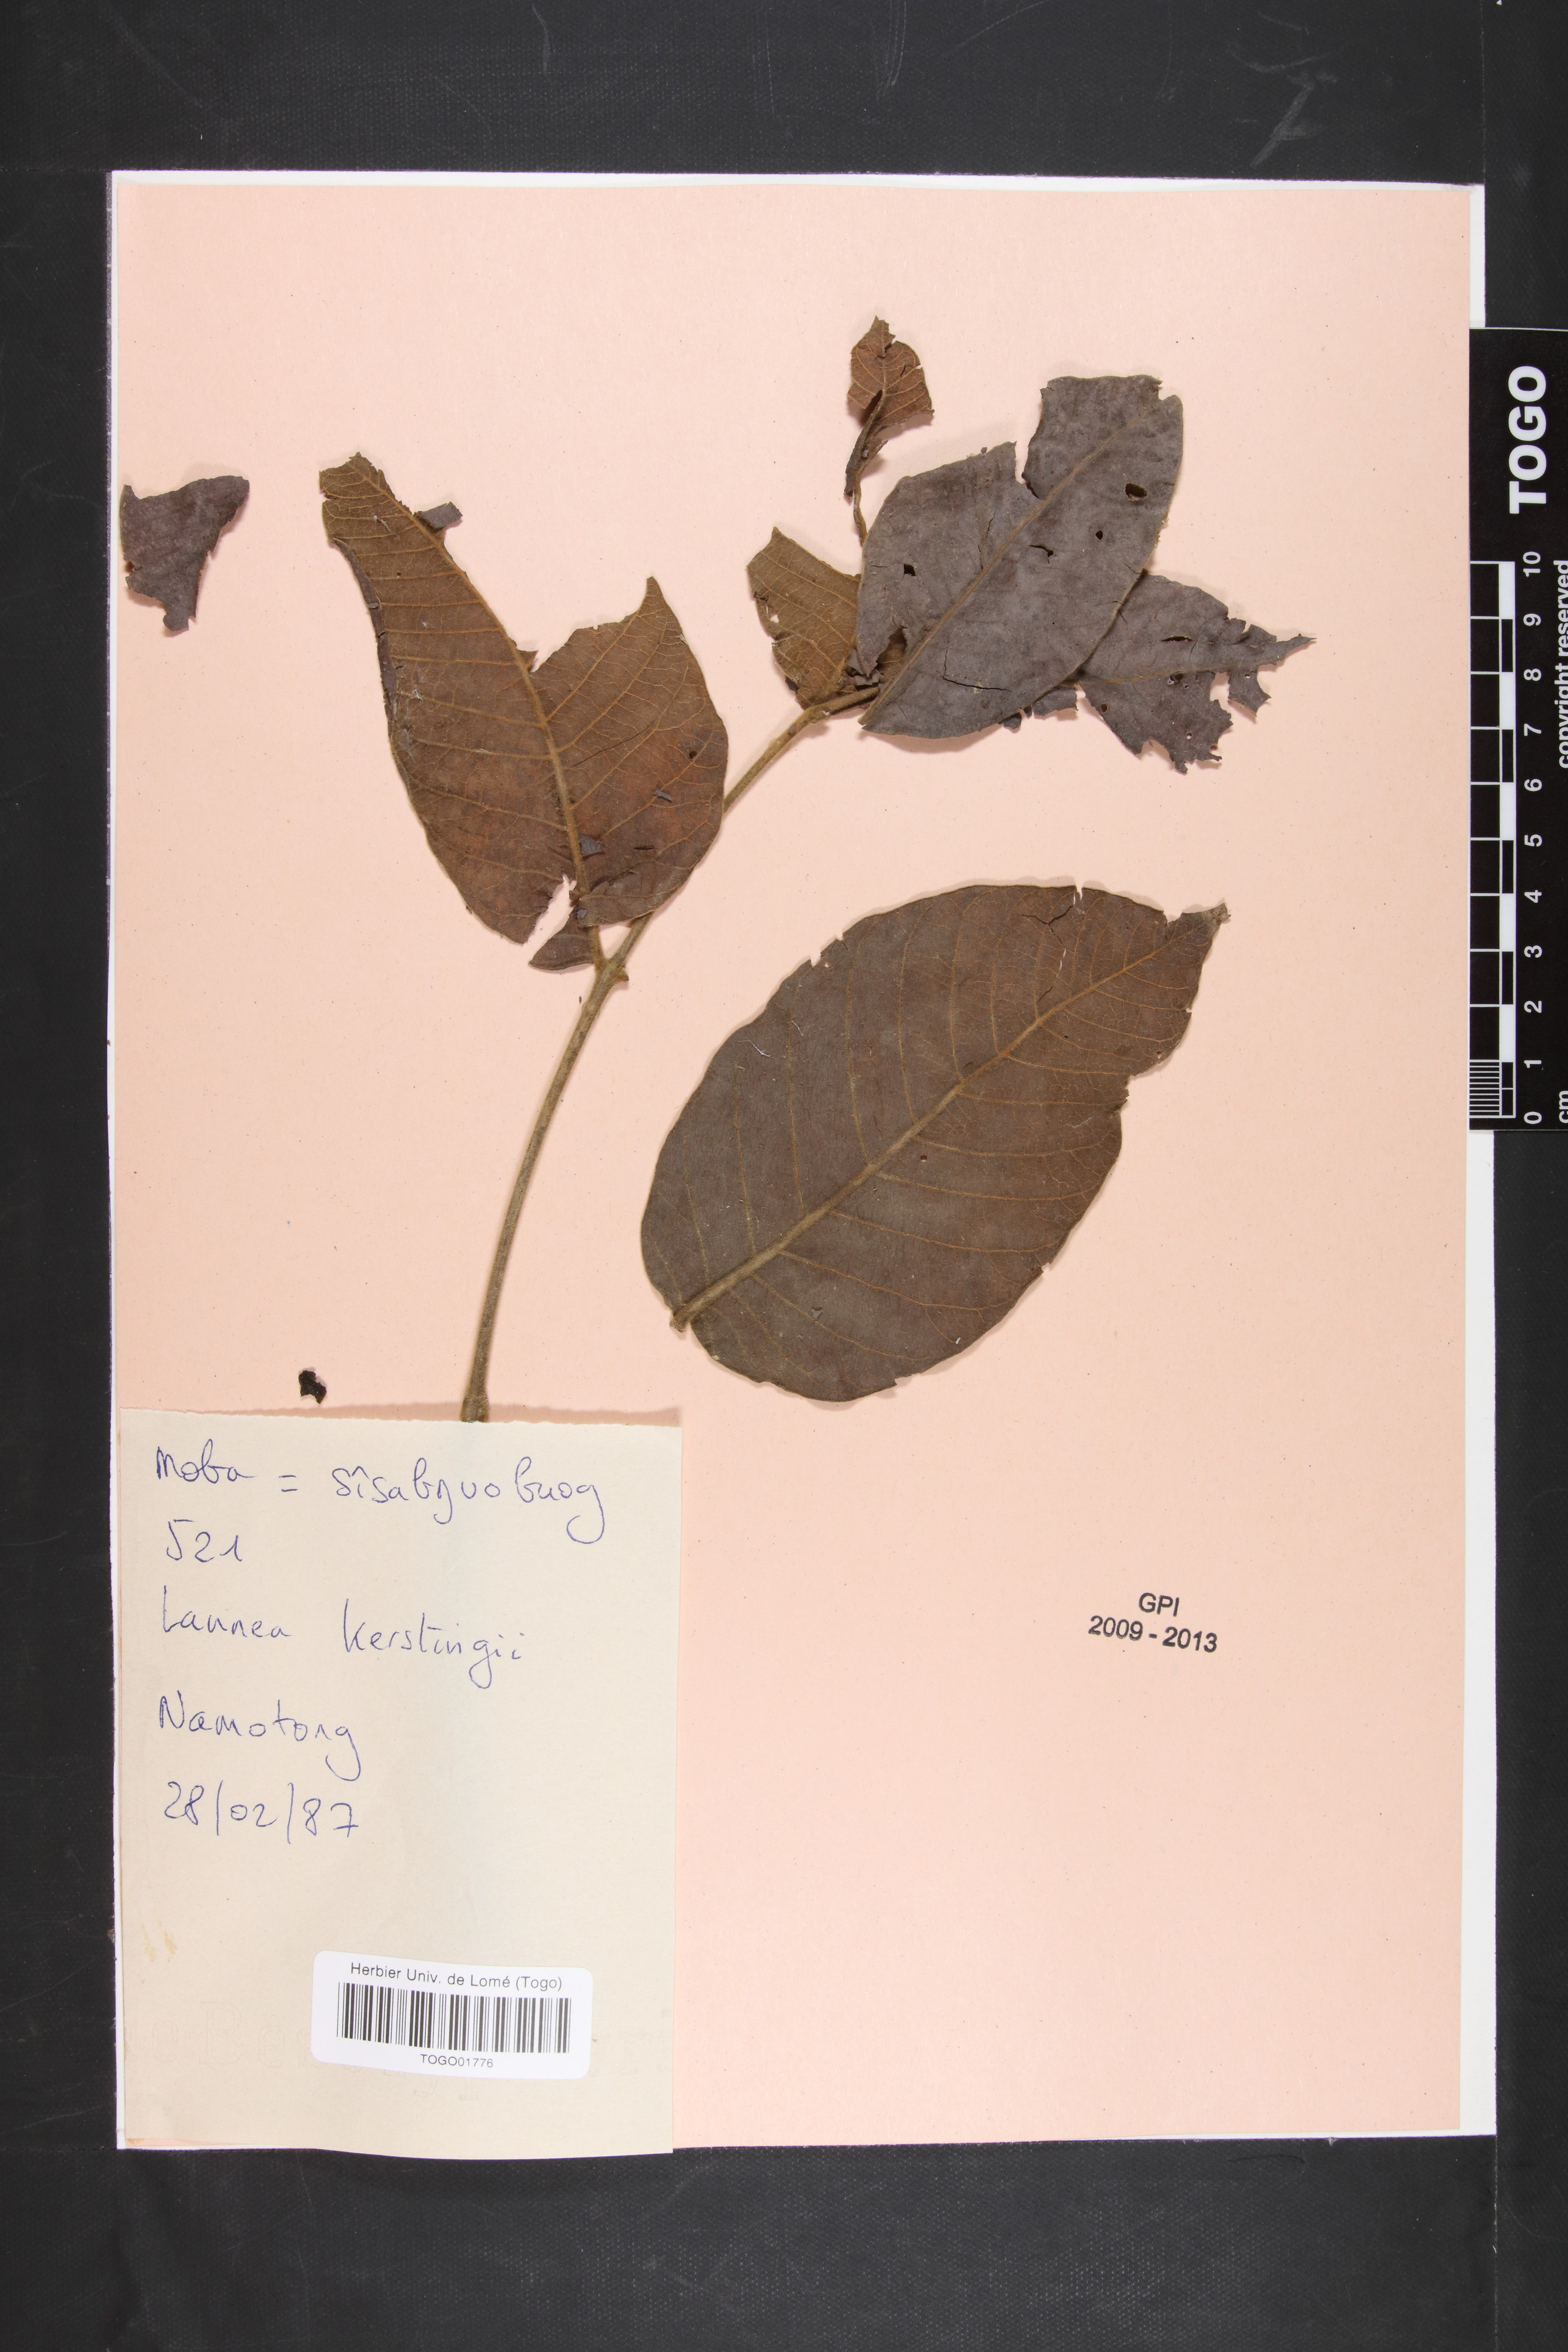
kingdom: Plantae
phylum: Tracheophyta
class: Magnoliopsida
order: Sapindales
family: Anacardiaceae
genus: Lannea
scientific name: Lannea barteri
